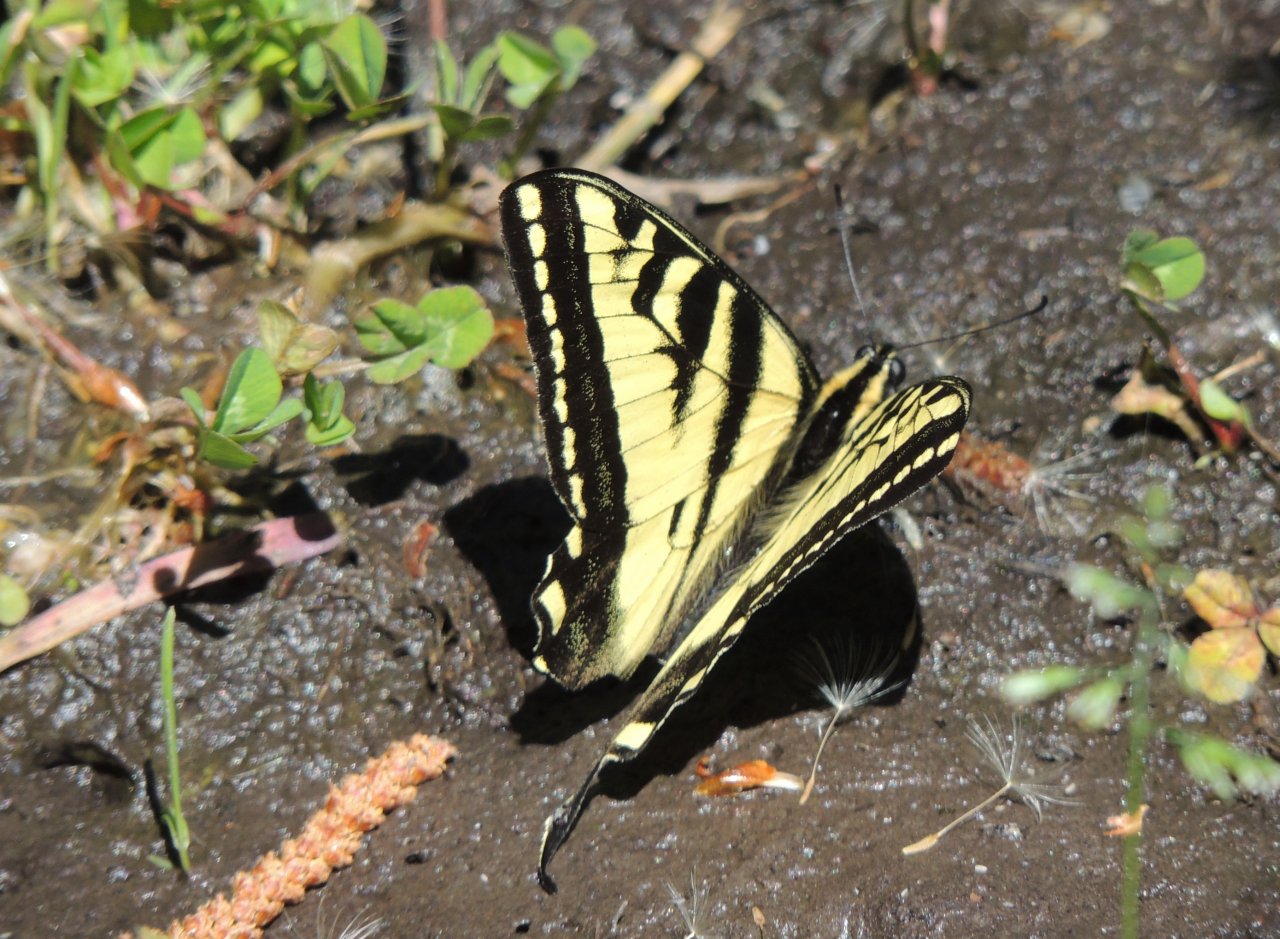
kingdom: Animalia
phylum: Arthropoda
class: Insecta
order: Lepidoptera
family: Papilionidae
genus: Pterourus
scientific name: Pterourus rutulus
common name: Western Tiger Swallowtail
